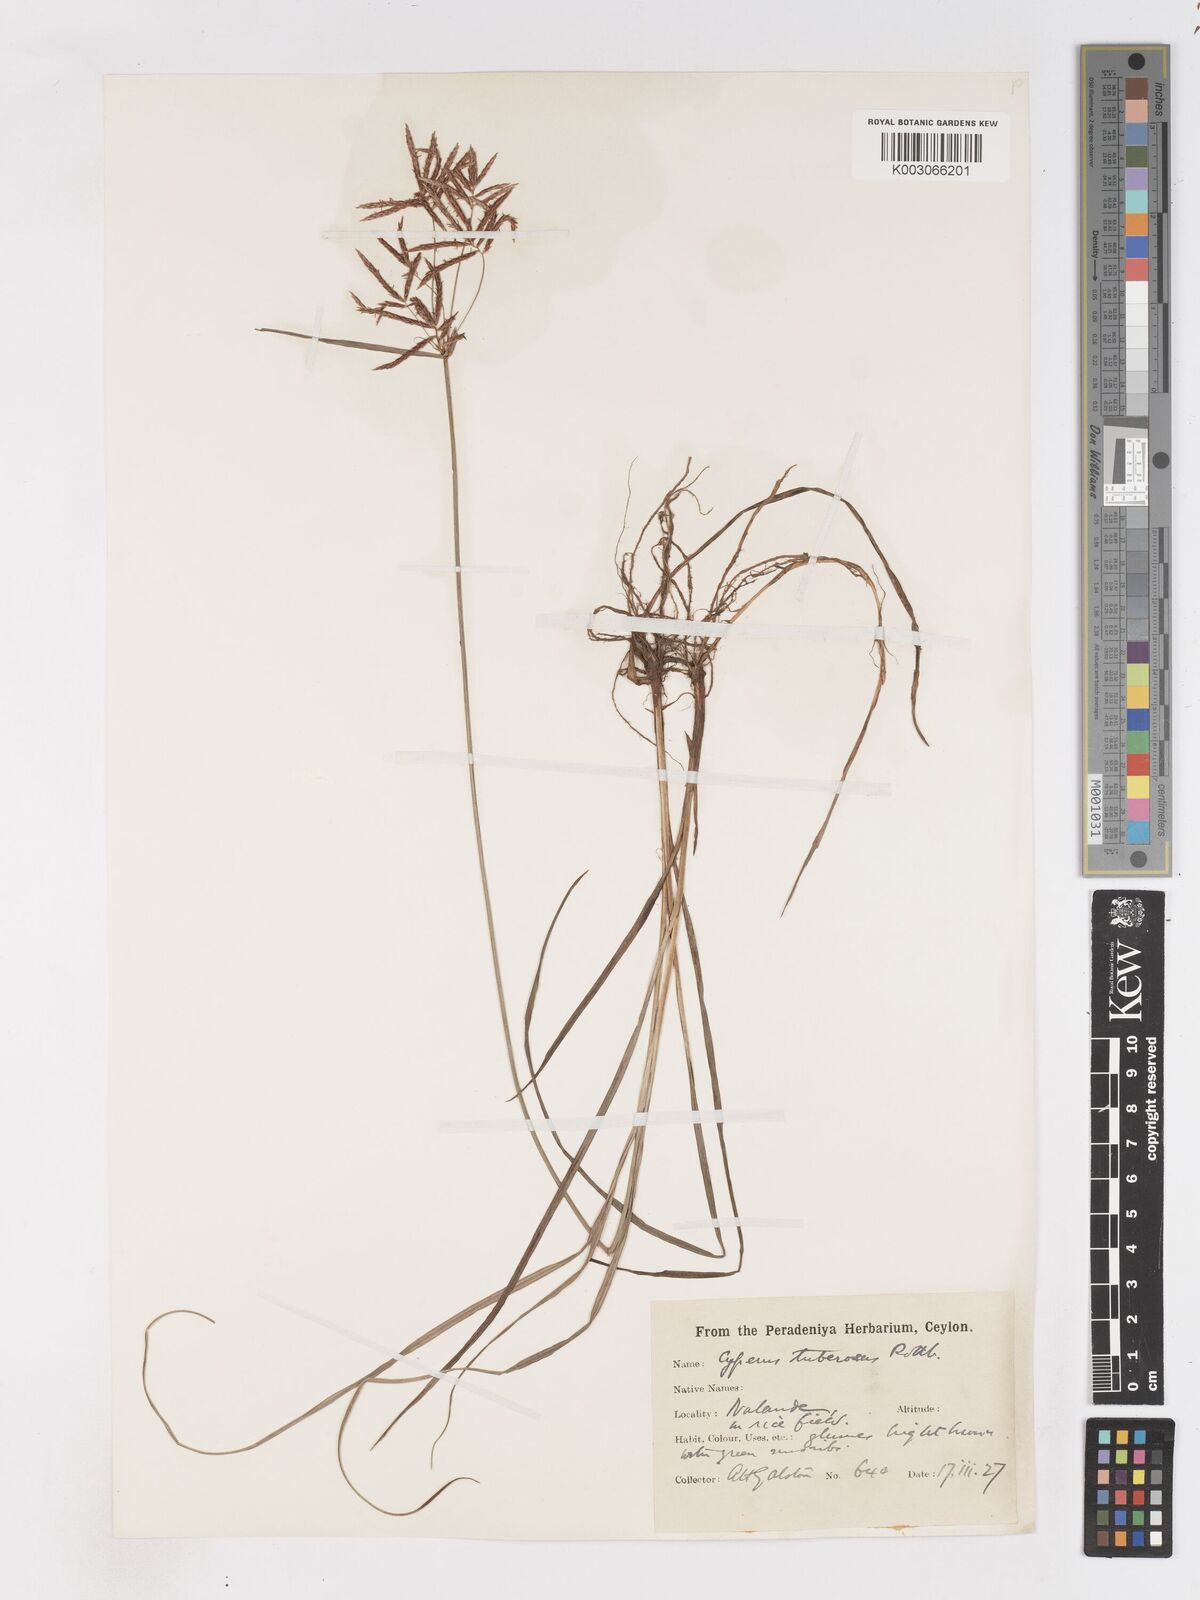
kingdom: Plantae
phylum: Tracheophyta
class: Liliopsida
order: Poales
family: Cyperaceae
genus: Cyperus
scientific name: Cyperus bifax
